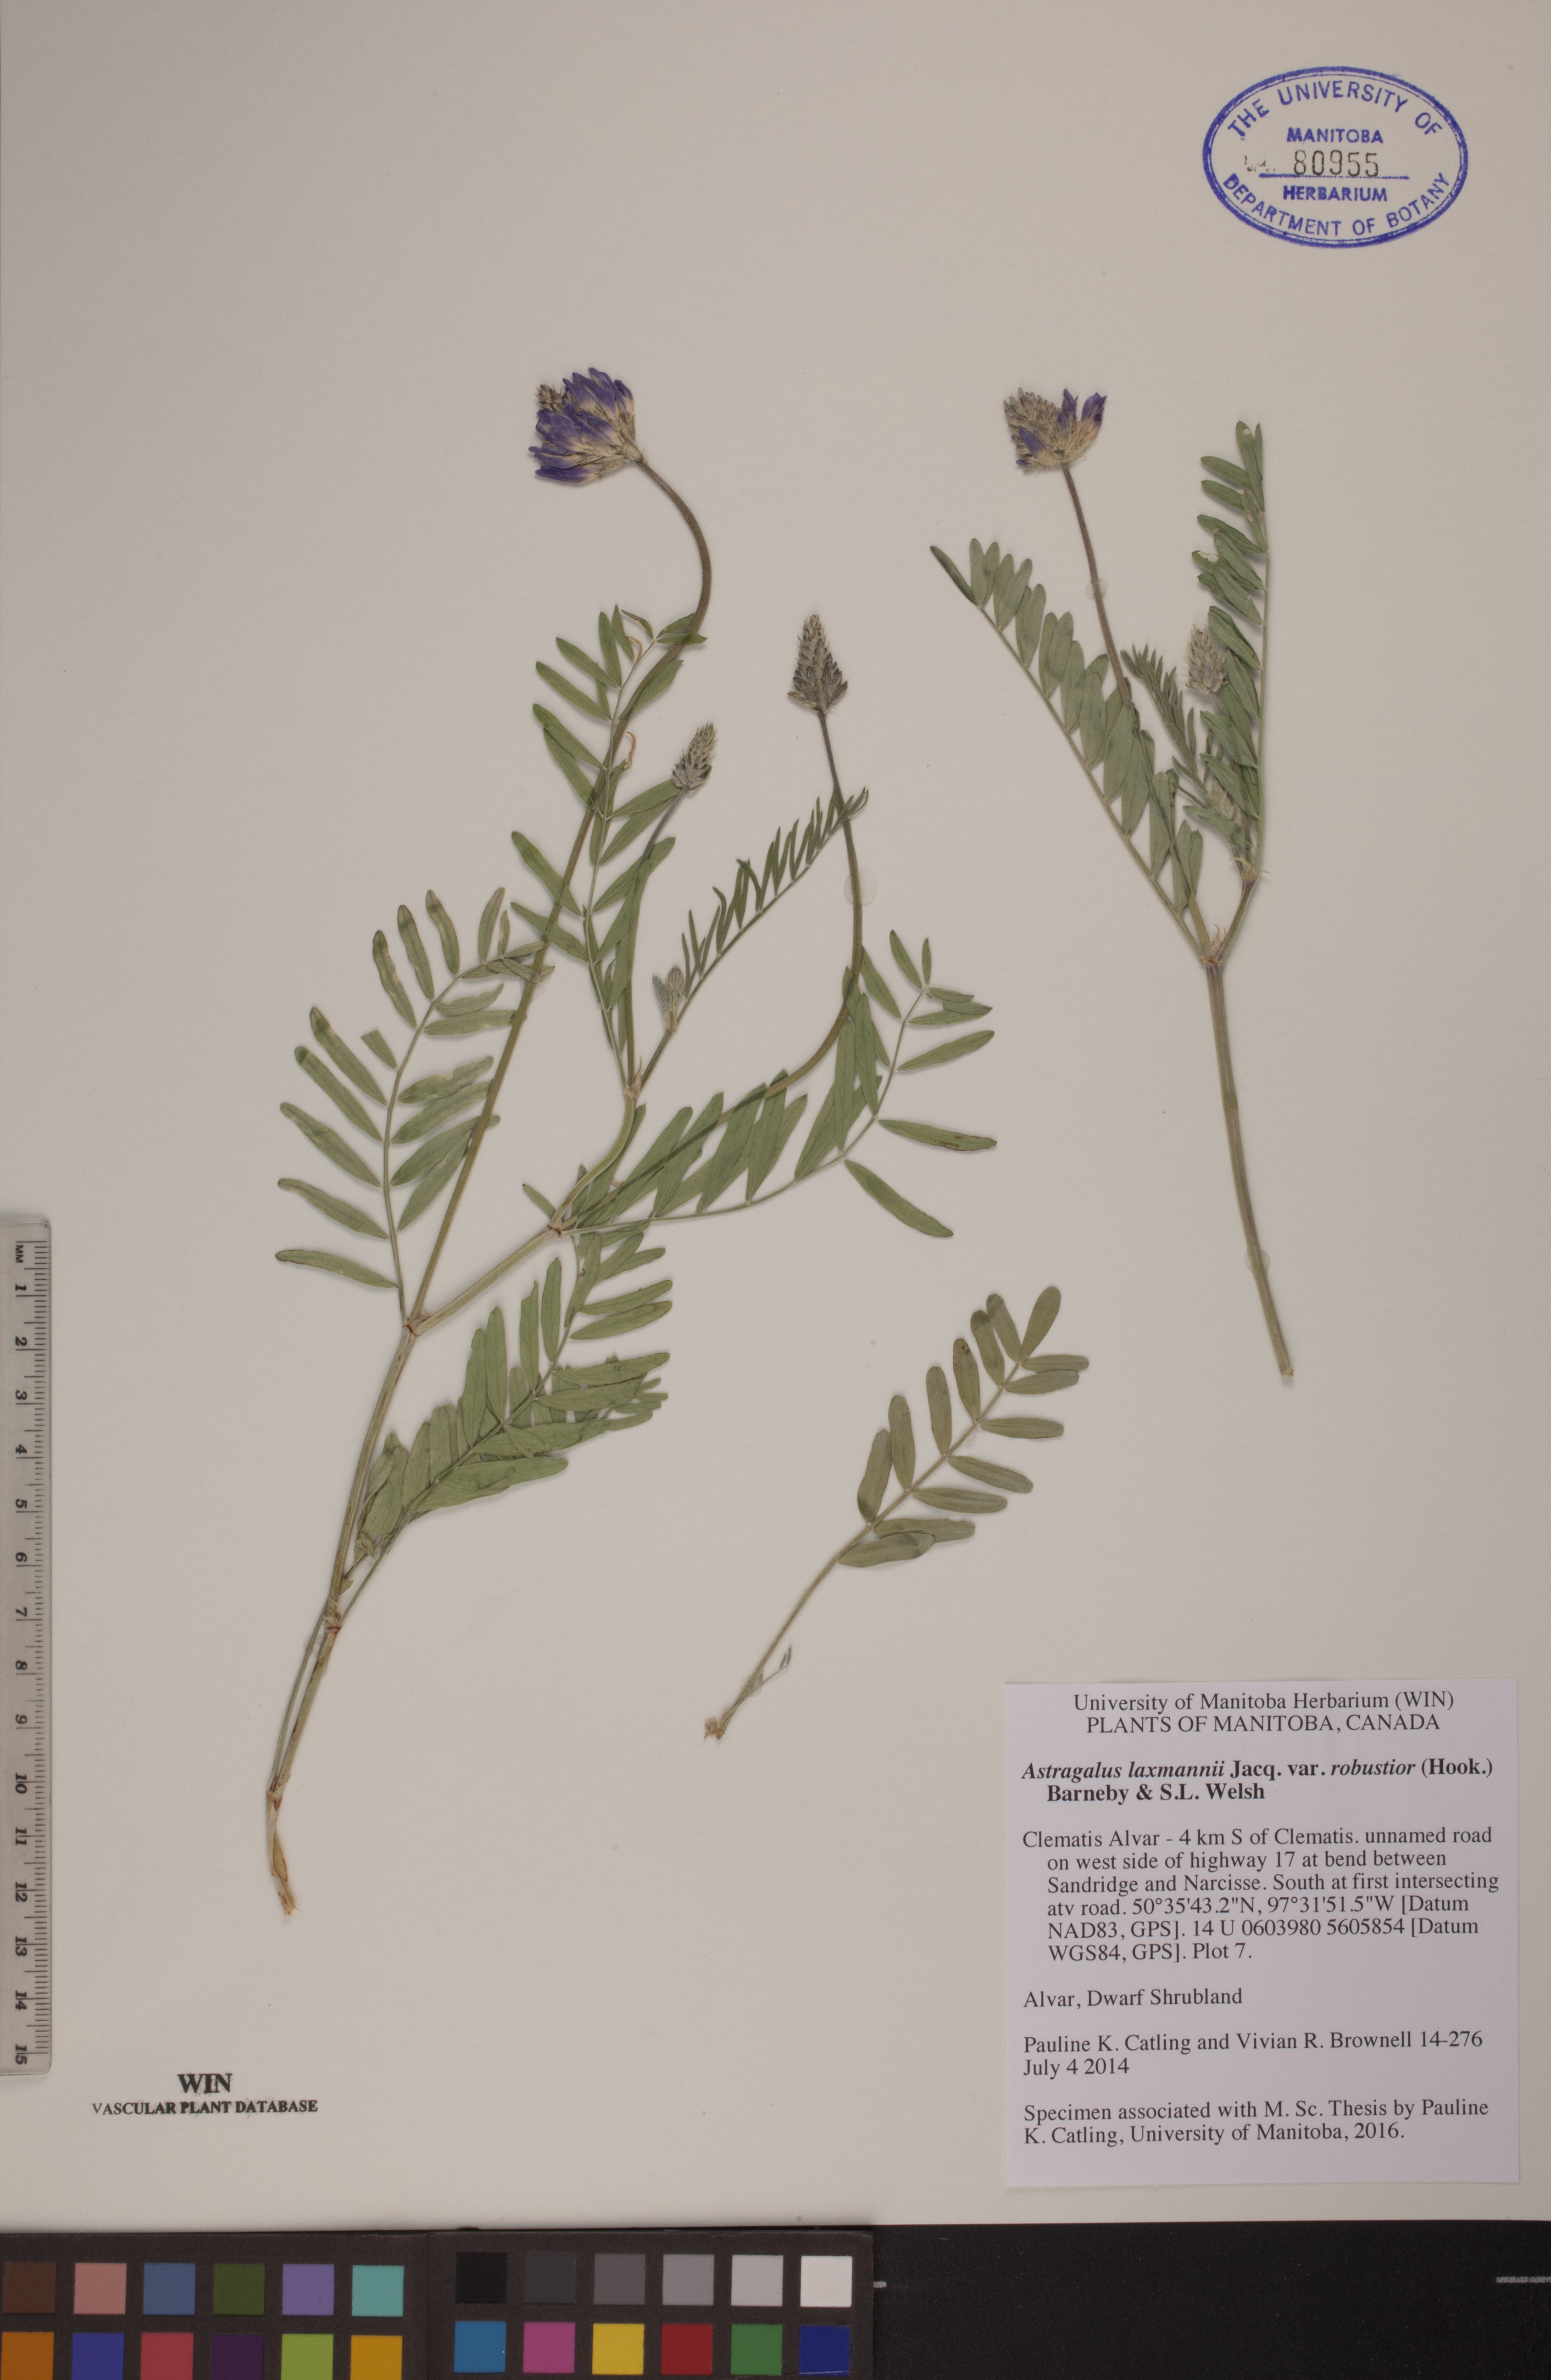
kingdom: Plantae
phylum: Tracheophyta
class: Magnoliopsida
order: Fabales
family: Fabaceae
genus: Astragalus
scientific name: Astragalus laxmannii
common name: Laxmann's milk-vetch
